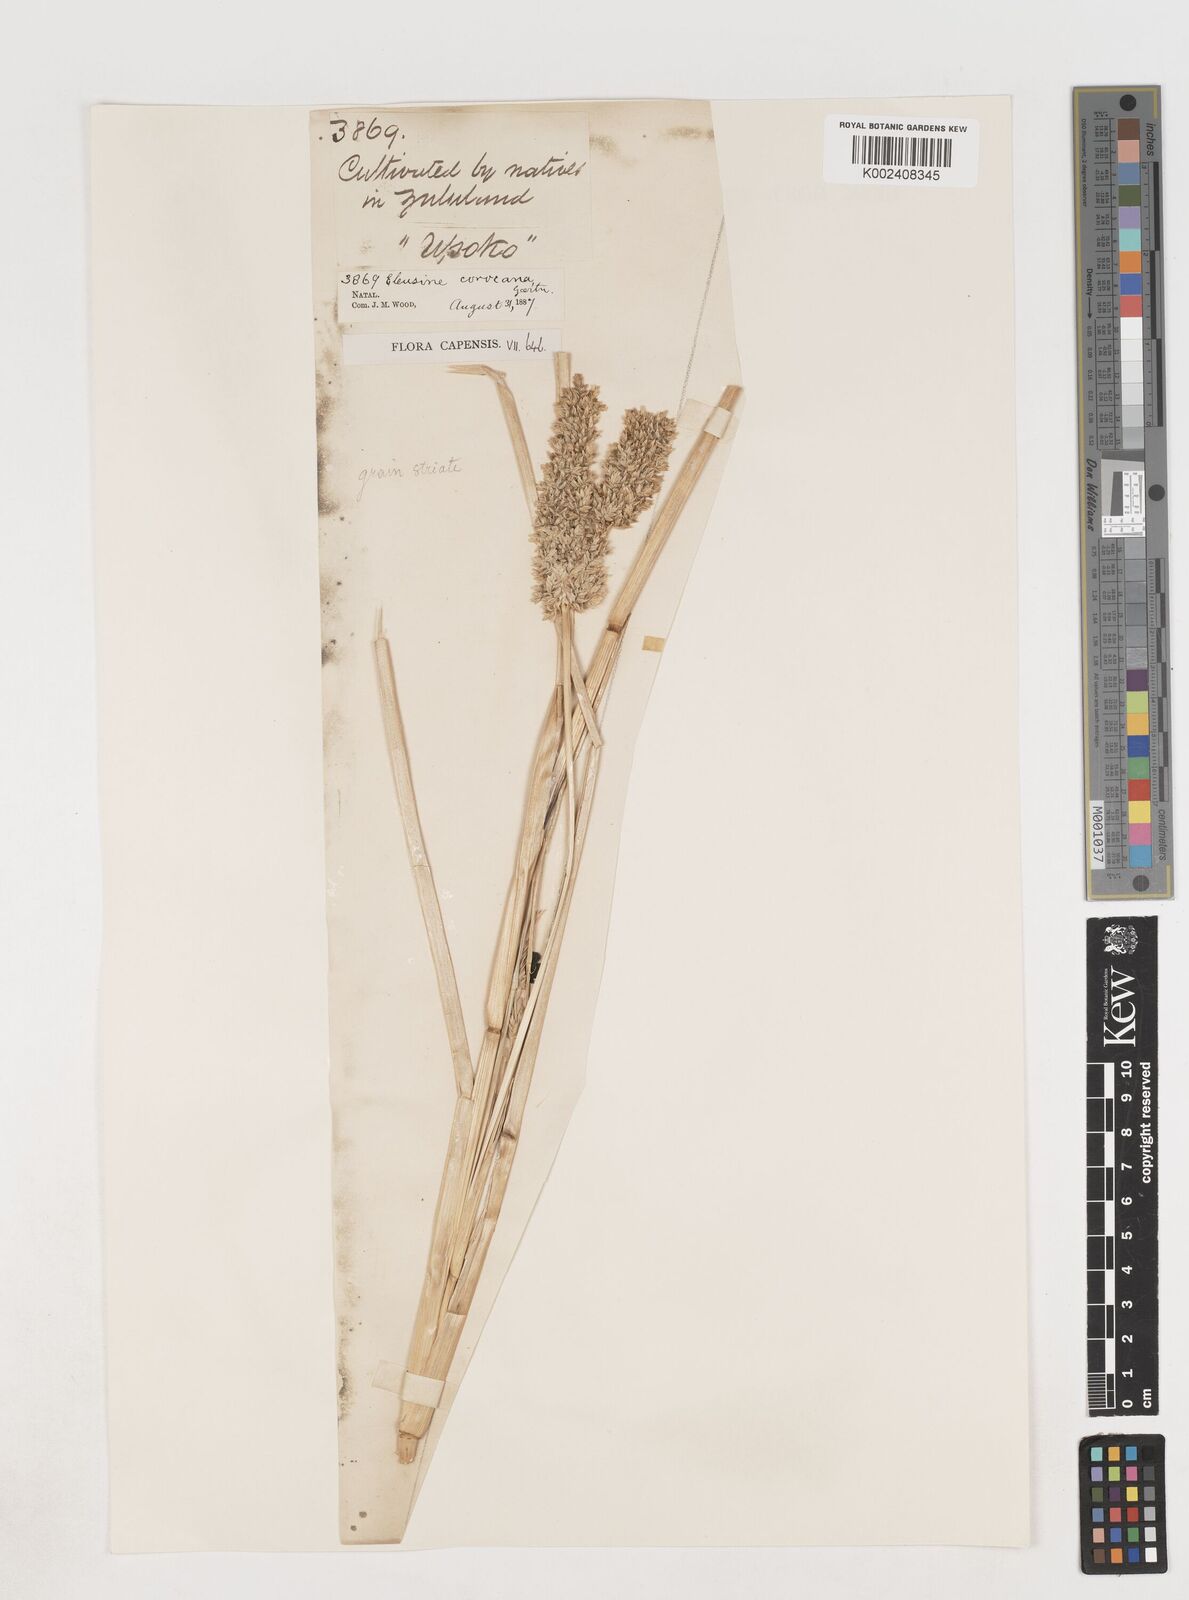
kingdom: Plantae
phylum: Tracheophyta
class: Liliopsida
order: Poales
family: Poaceae
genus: Eleusine
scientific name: Eleusine coracana
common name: Finger millet
